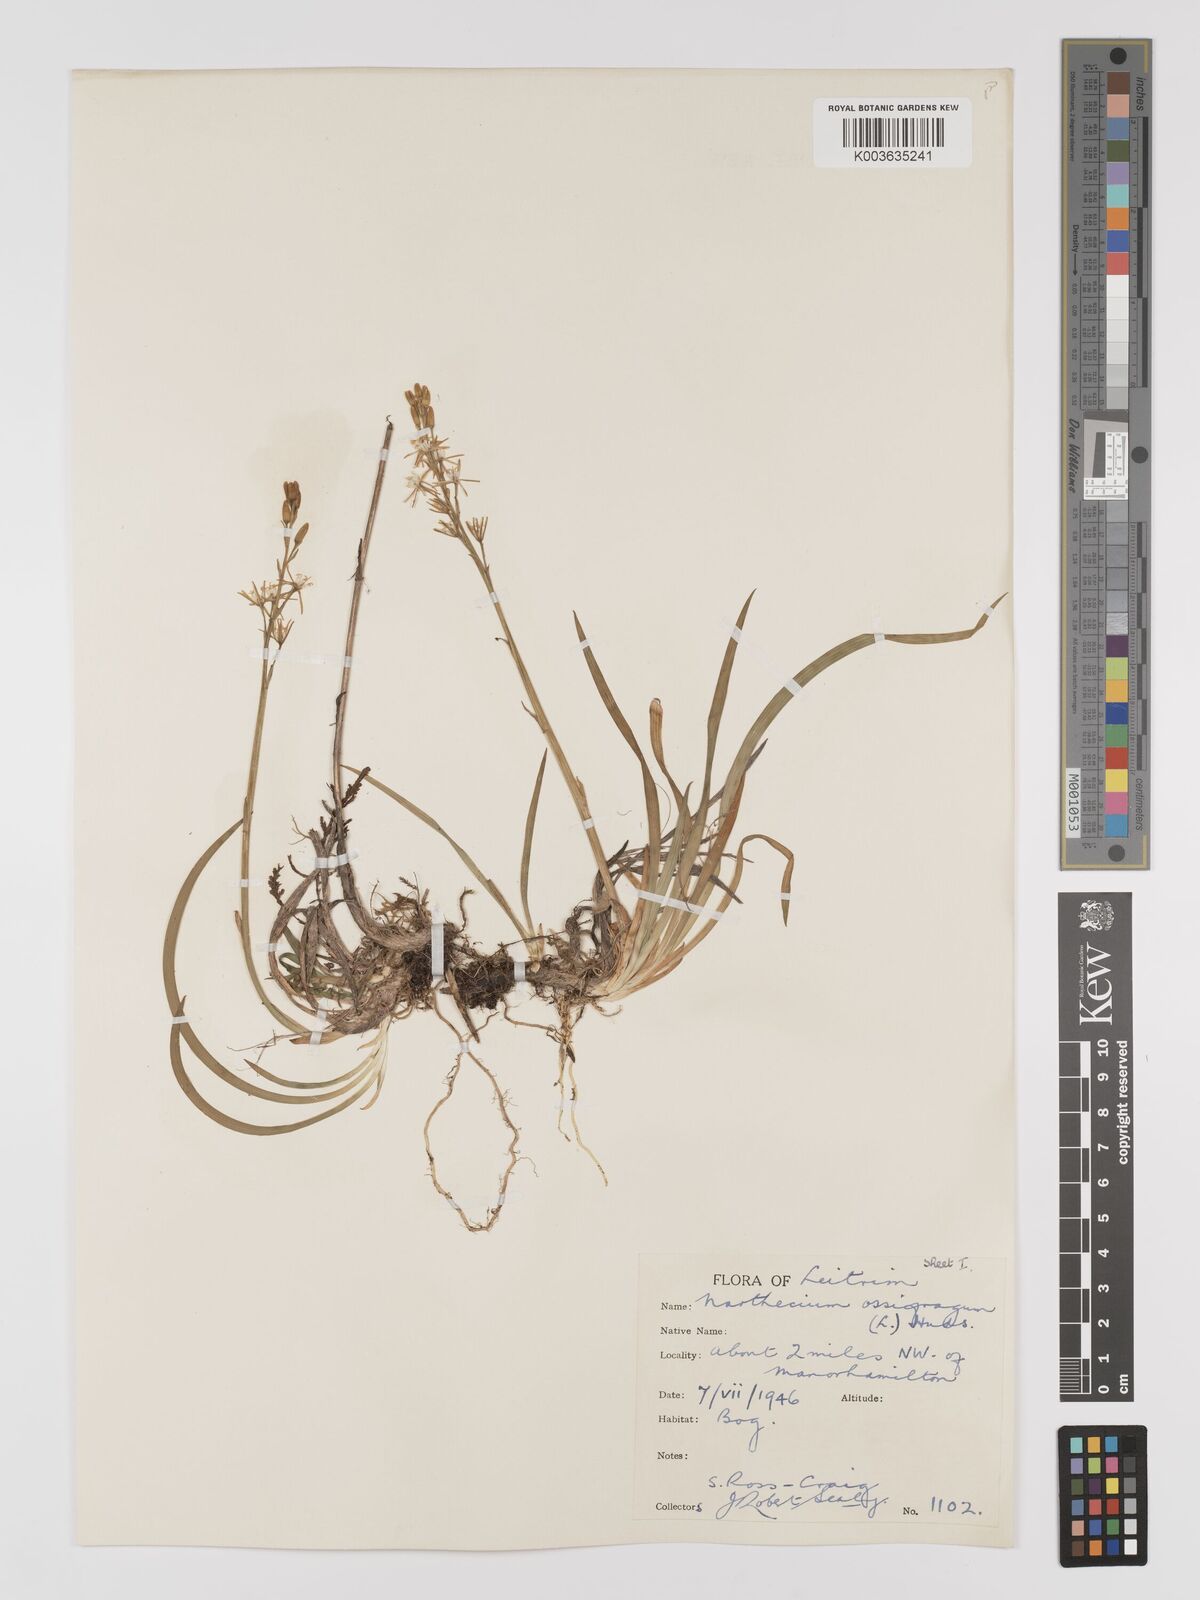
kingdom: Plantae
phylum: Tracheophyta
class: Liliopsida
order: Dioscoreales
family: Nartheciaceae
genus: Narthecium
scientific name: Narthecium ossifragum
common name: Bog asphodel
